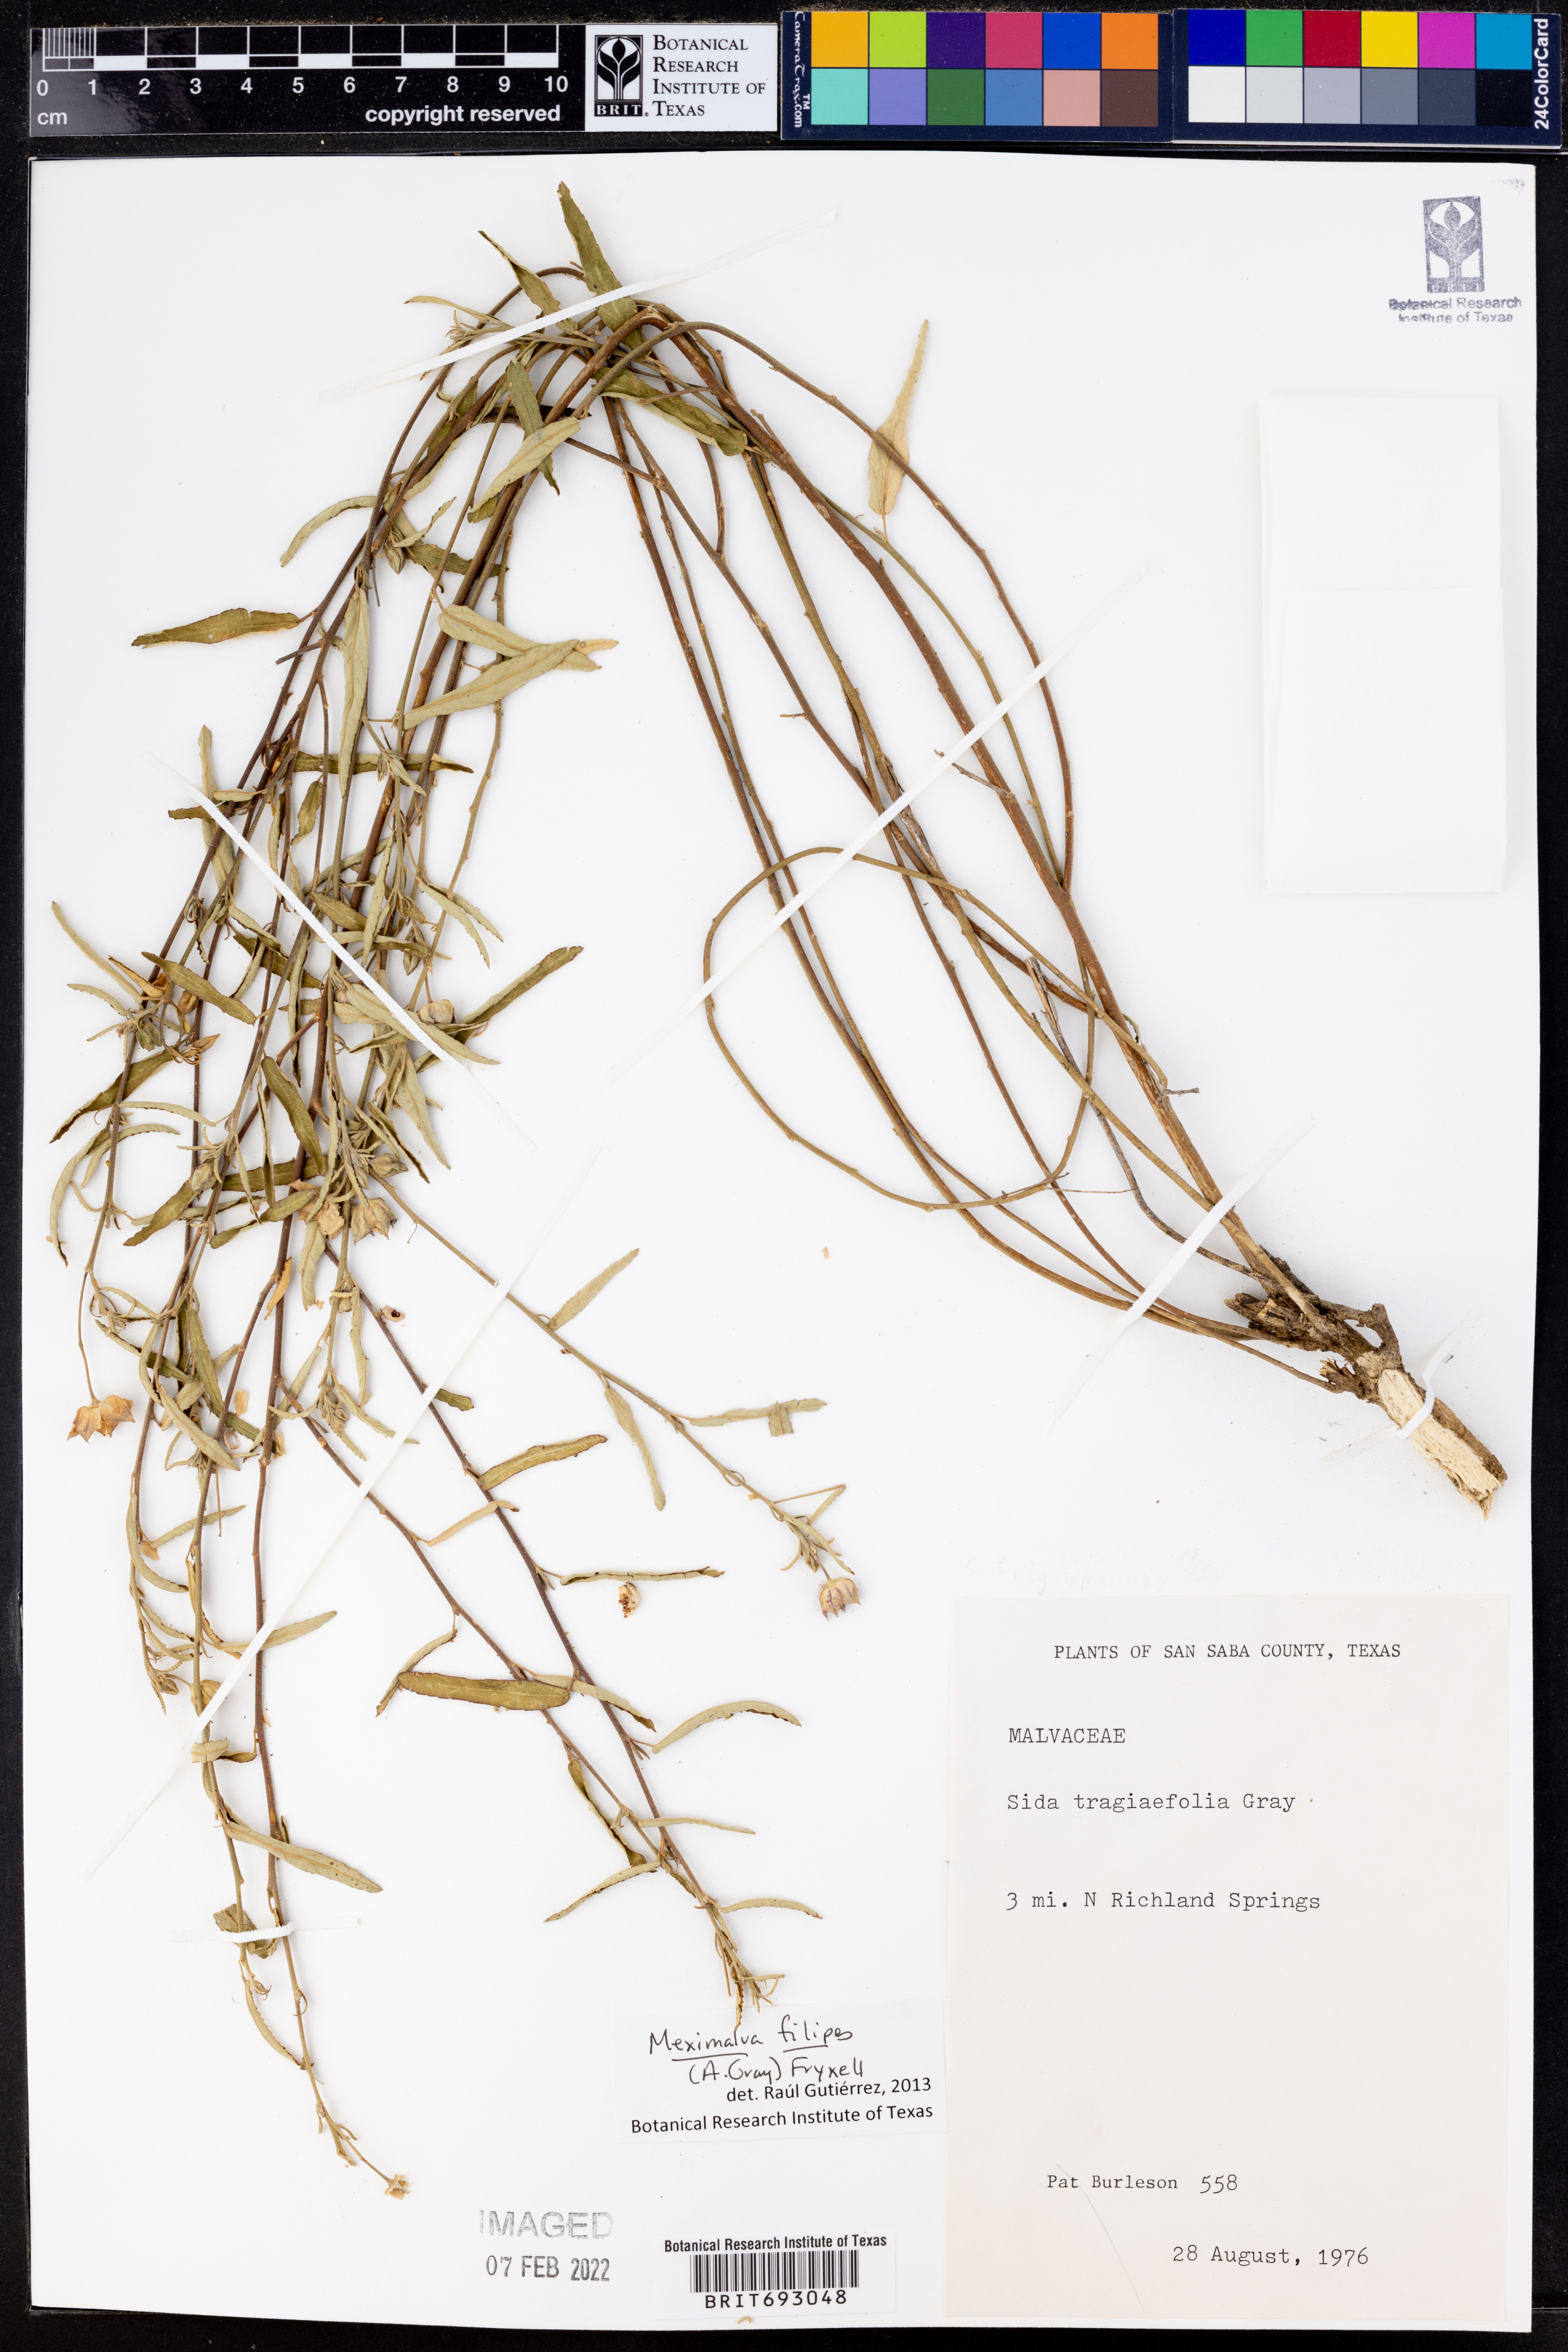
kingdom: Plantae
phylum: Tracheophyta
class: Magnoliopsida
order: Malvales
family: Malvaceae
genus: Meximalva
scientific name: Meximalva filipes
